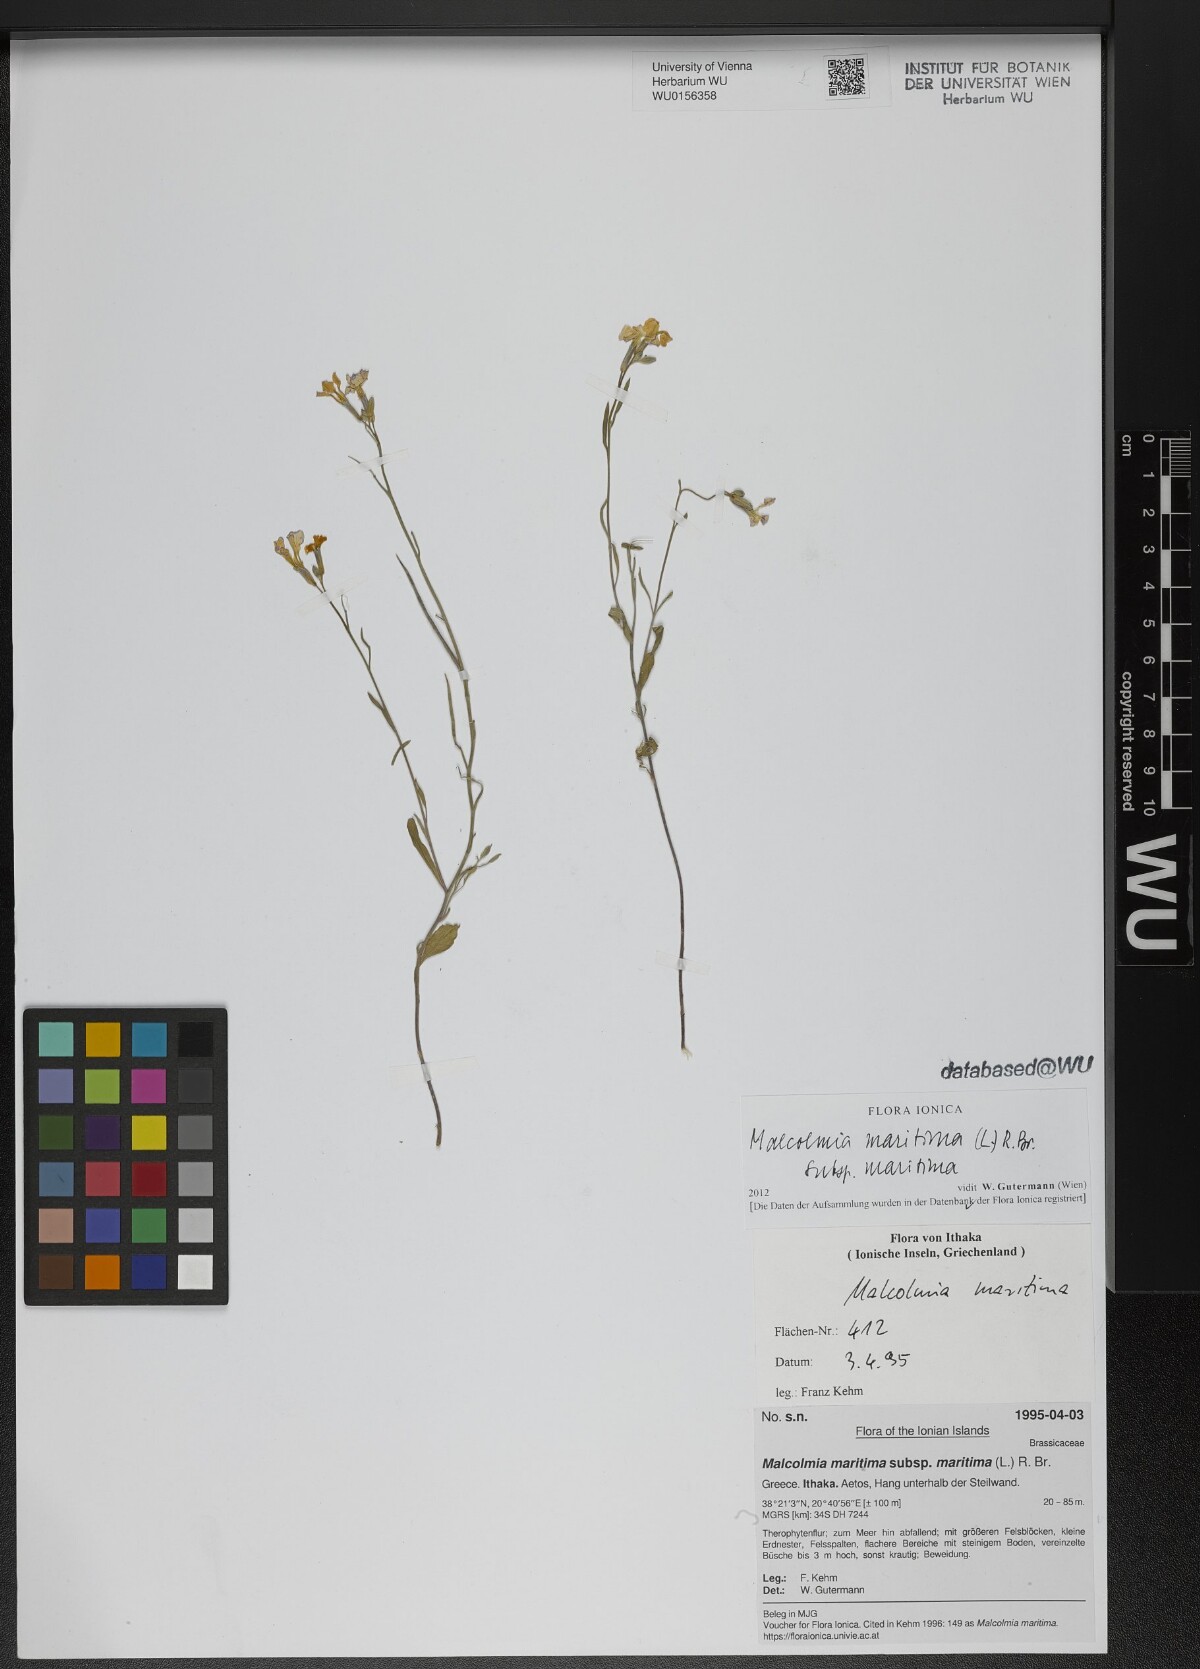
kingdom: Plantae
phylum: Tracheophyta
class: Magnoliopsida
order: Brassicales
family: Brassicaceae
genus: Malcolmia
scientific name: Malcolmia maritima
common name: Virginia stock
